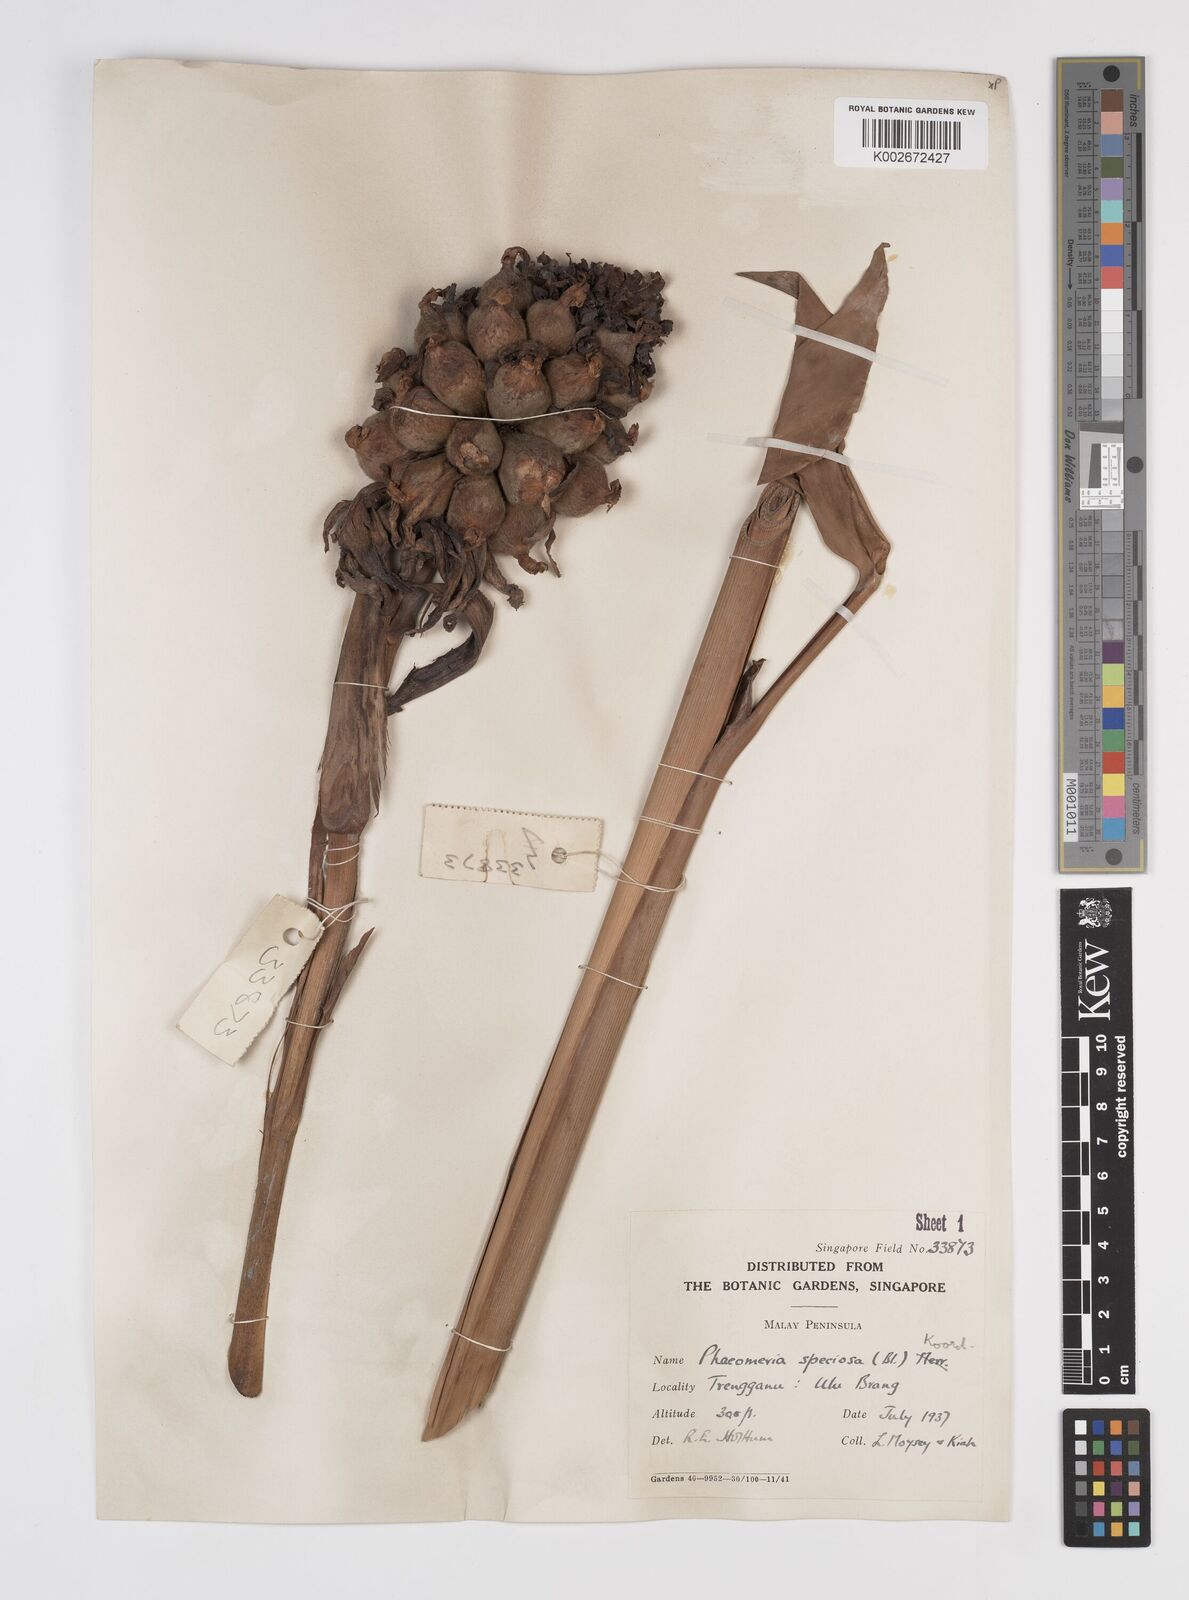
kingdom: Plantae
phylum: Tracheophyta
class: Liliopsida
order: Zingiberales
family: Zingiberaceae
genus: Etlingera
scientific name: Etlingera elatior
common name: Philippine waxflower
